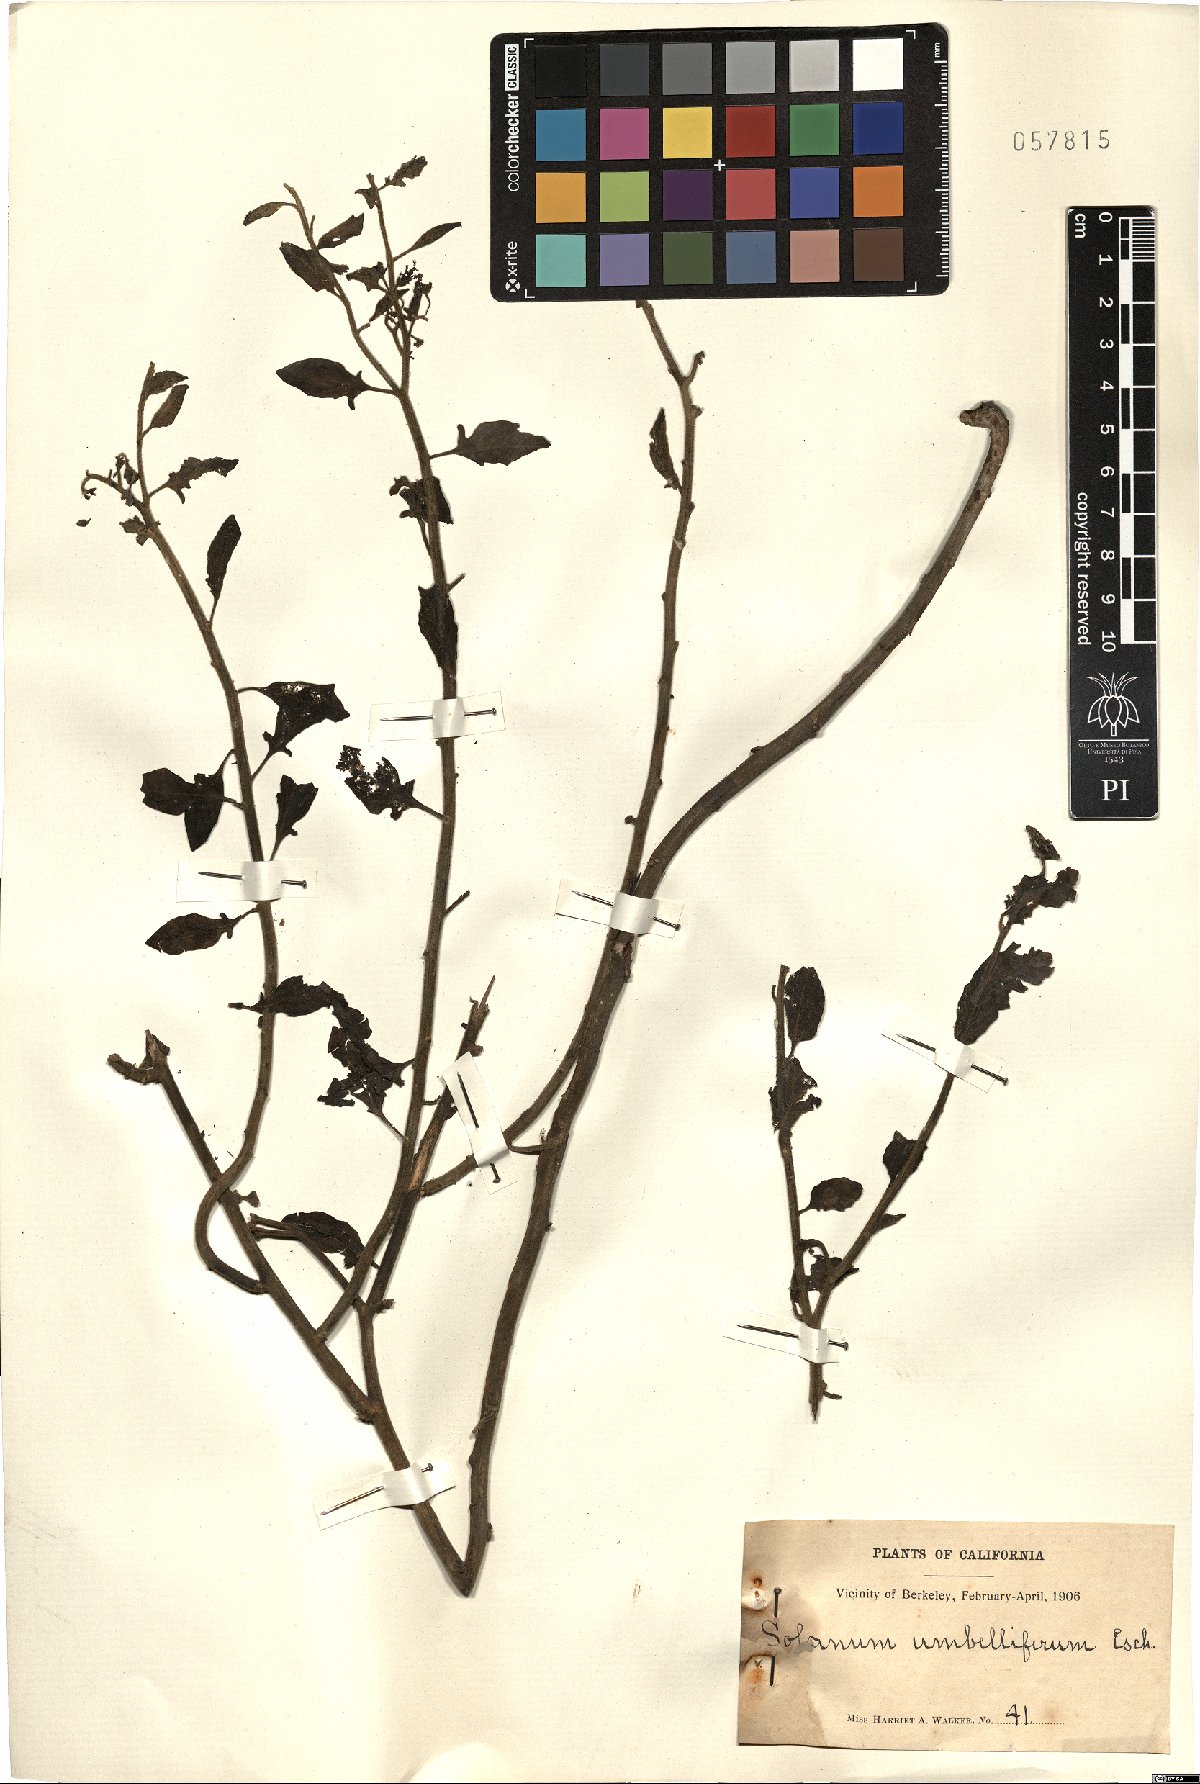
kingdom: Plantae
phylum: Tracheophyta
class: Magnoliopsida
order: Solanales
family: Solanaceae
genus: Solanum
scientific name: Solanum umbelliferum
